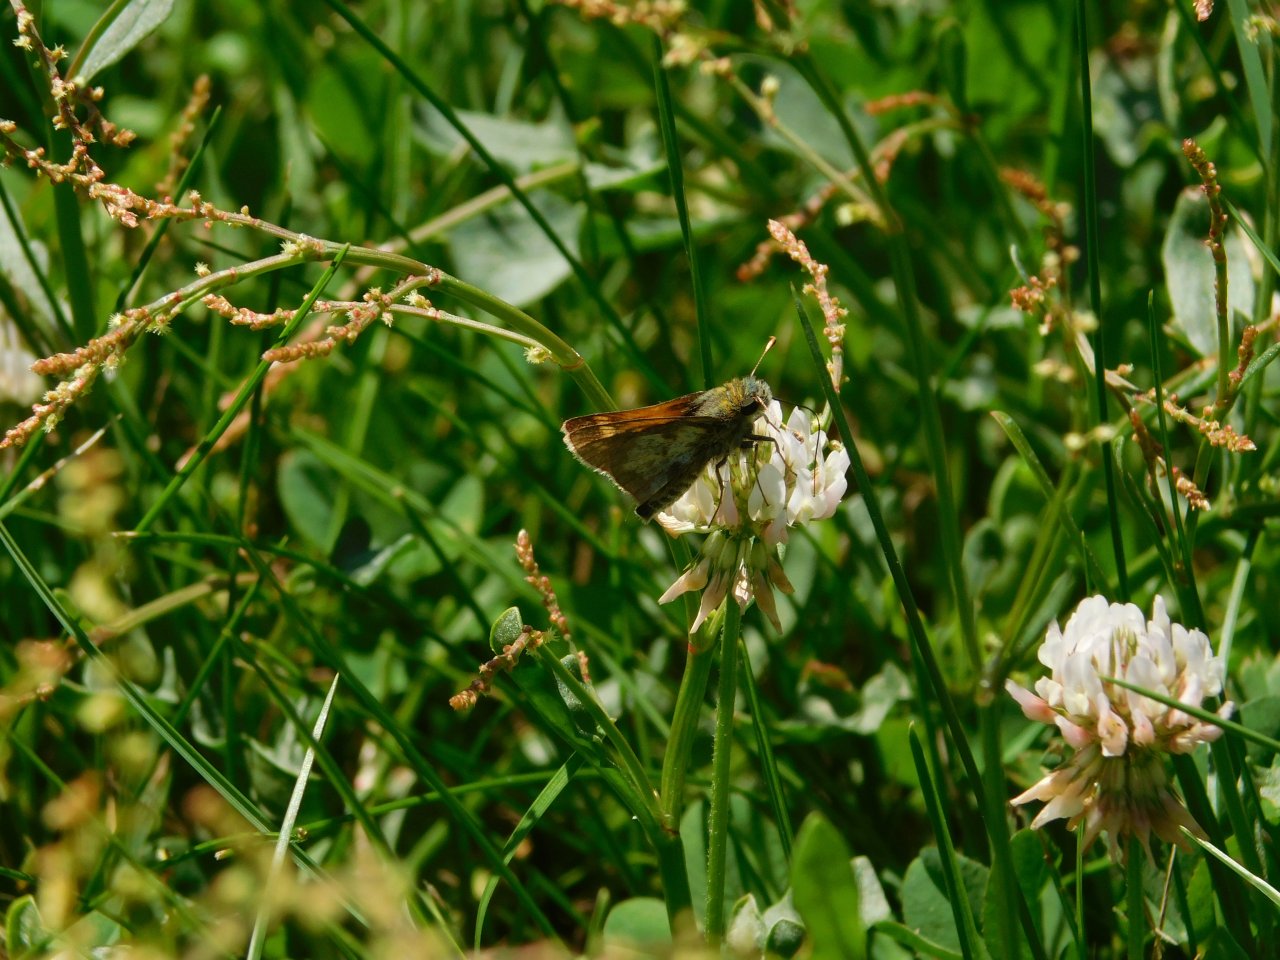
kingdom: Animalia
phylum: Arthropoda
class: Insecta
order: Lepidoptera
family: Hesperiidae
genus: Polites
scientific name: Polites coras
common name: Peck's Skipper
